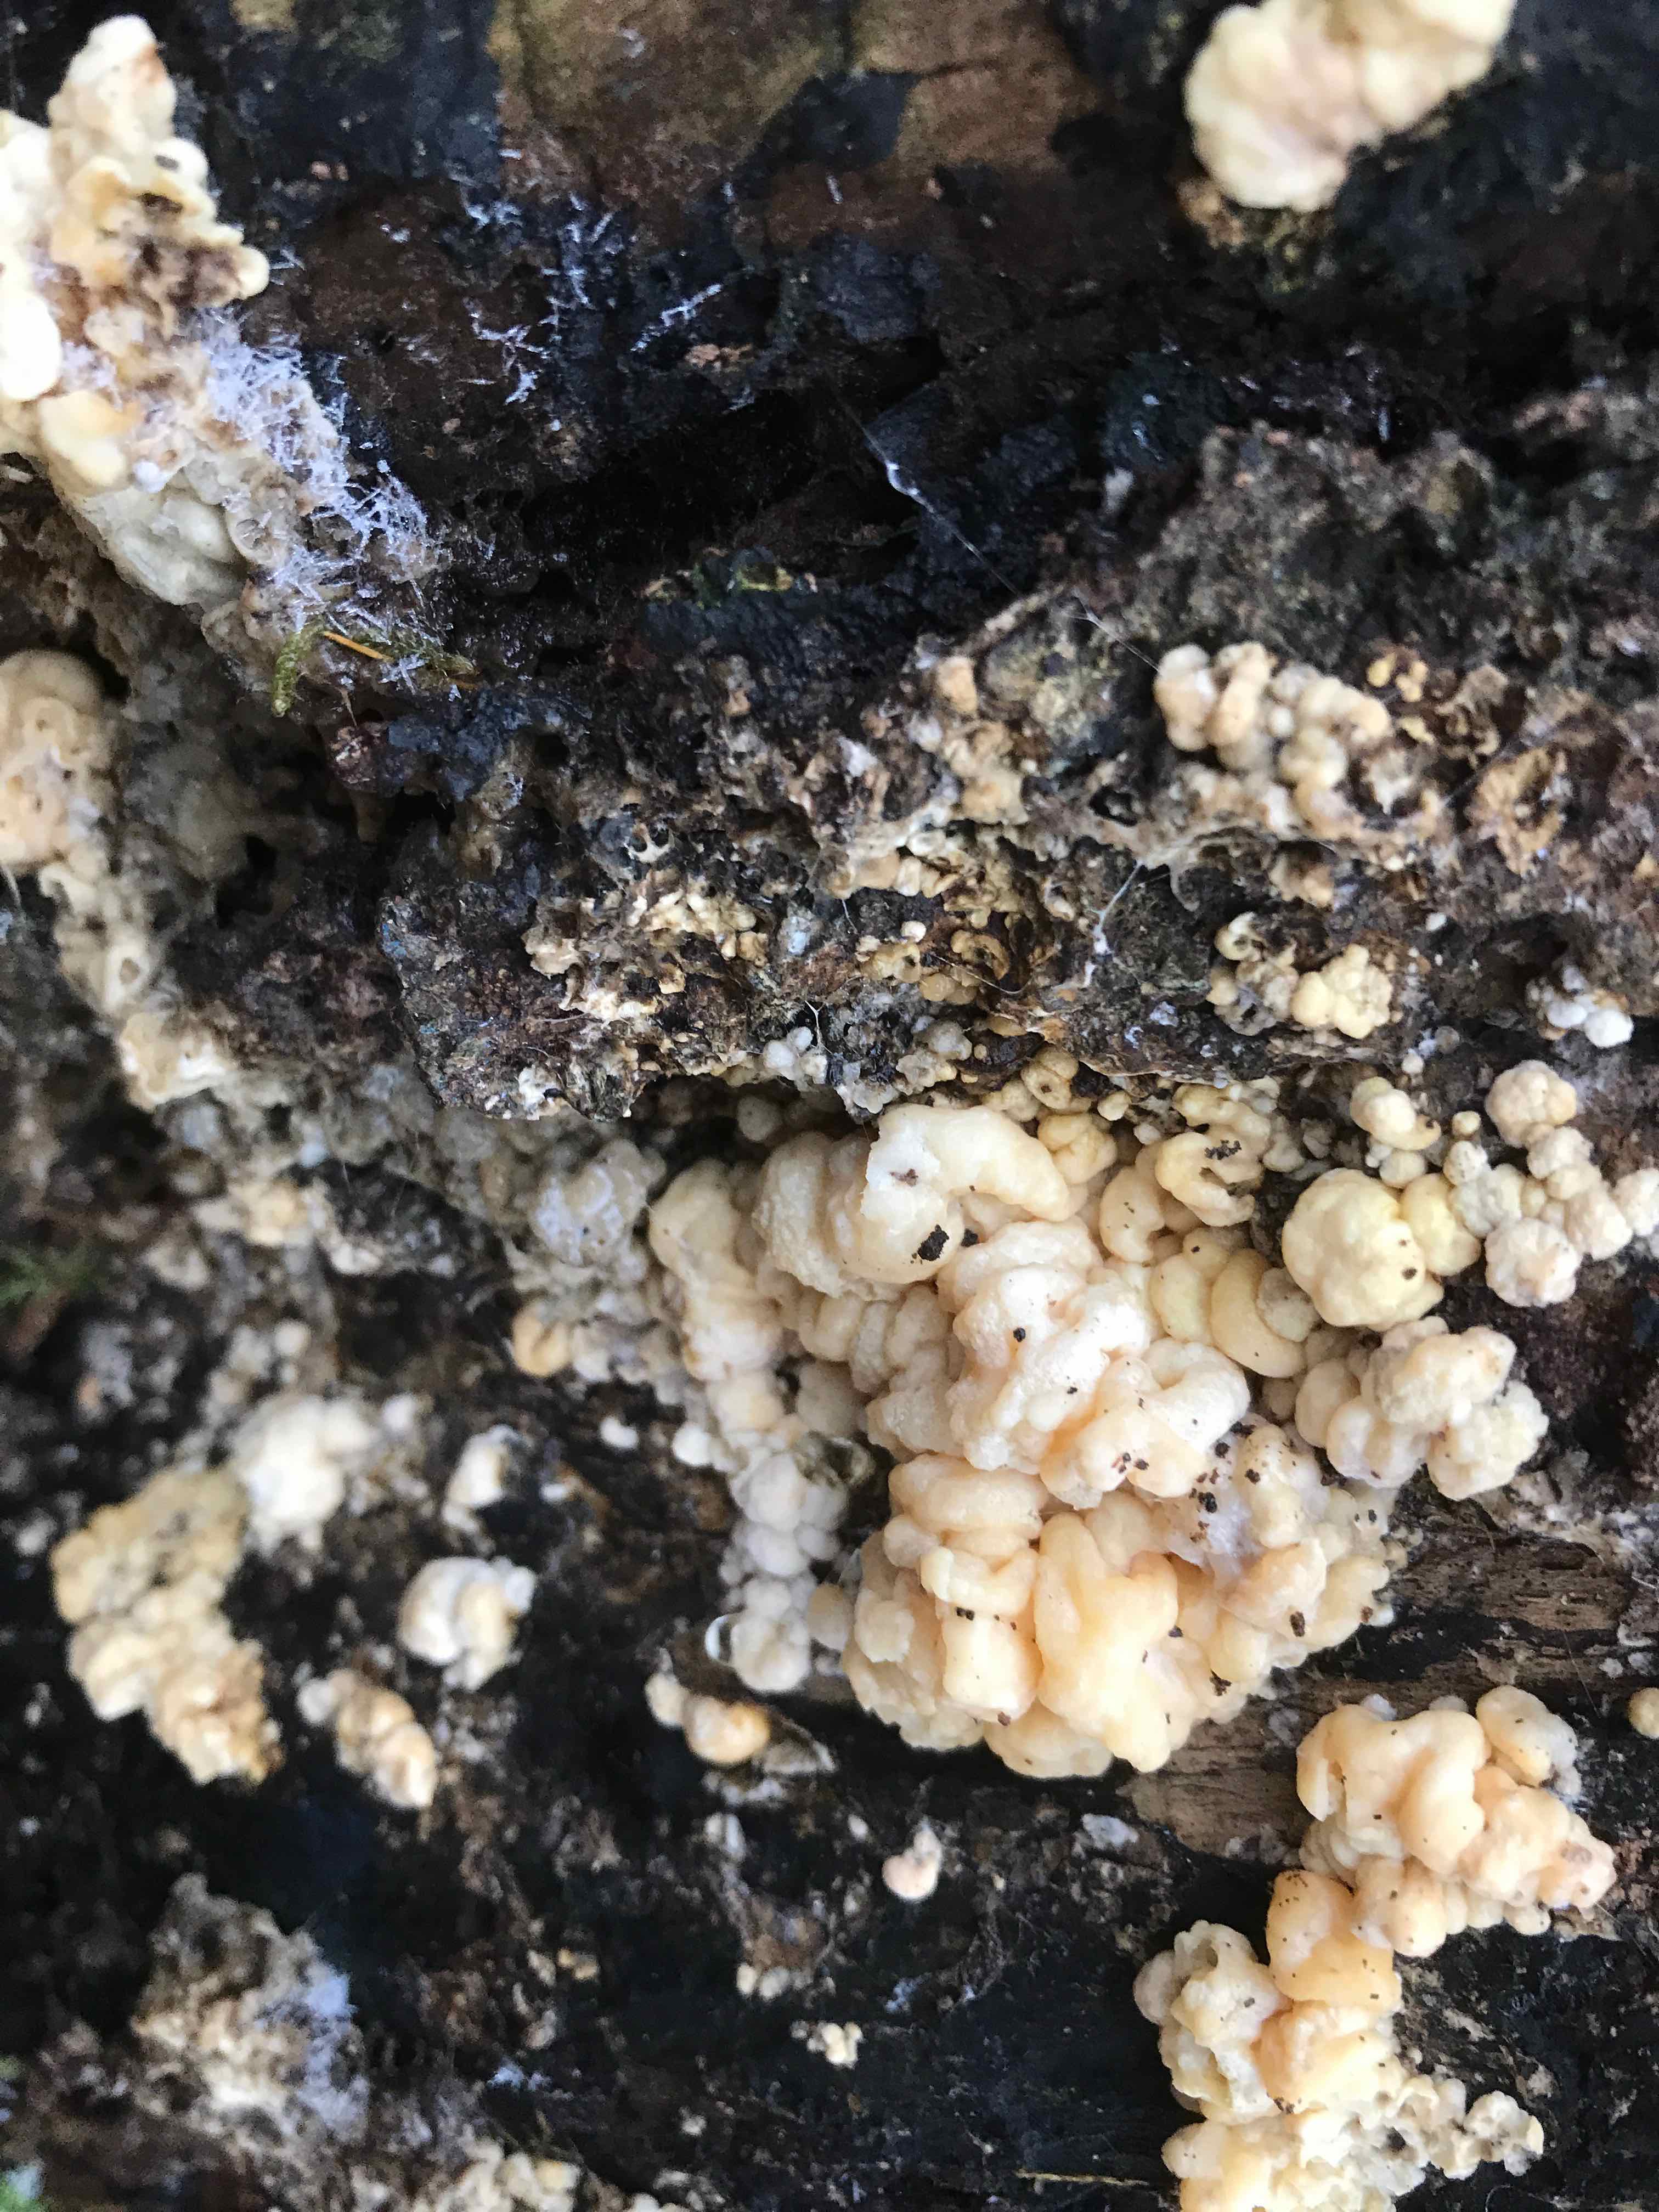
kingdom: Fungi
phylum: Ascomycota
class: Sordariomycetes
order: Xylariales
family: Hypoxylaceae
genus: Nodulisporium
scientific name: Nodulisporium cecidiogenes
